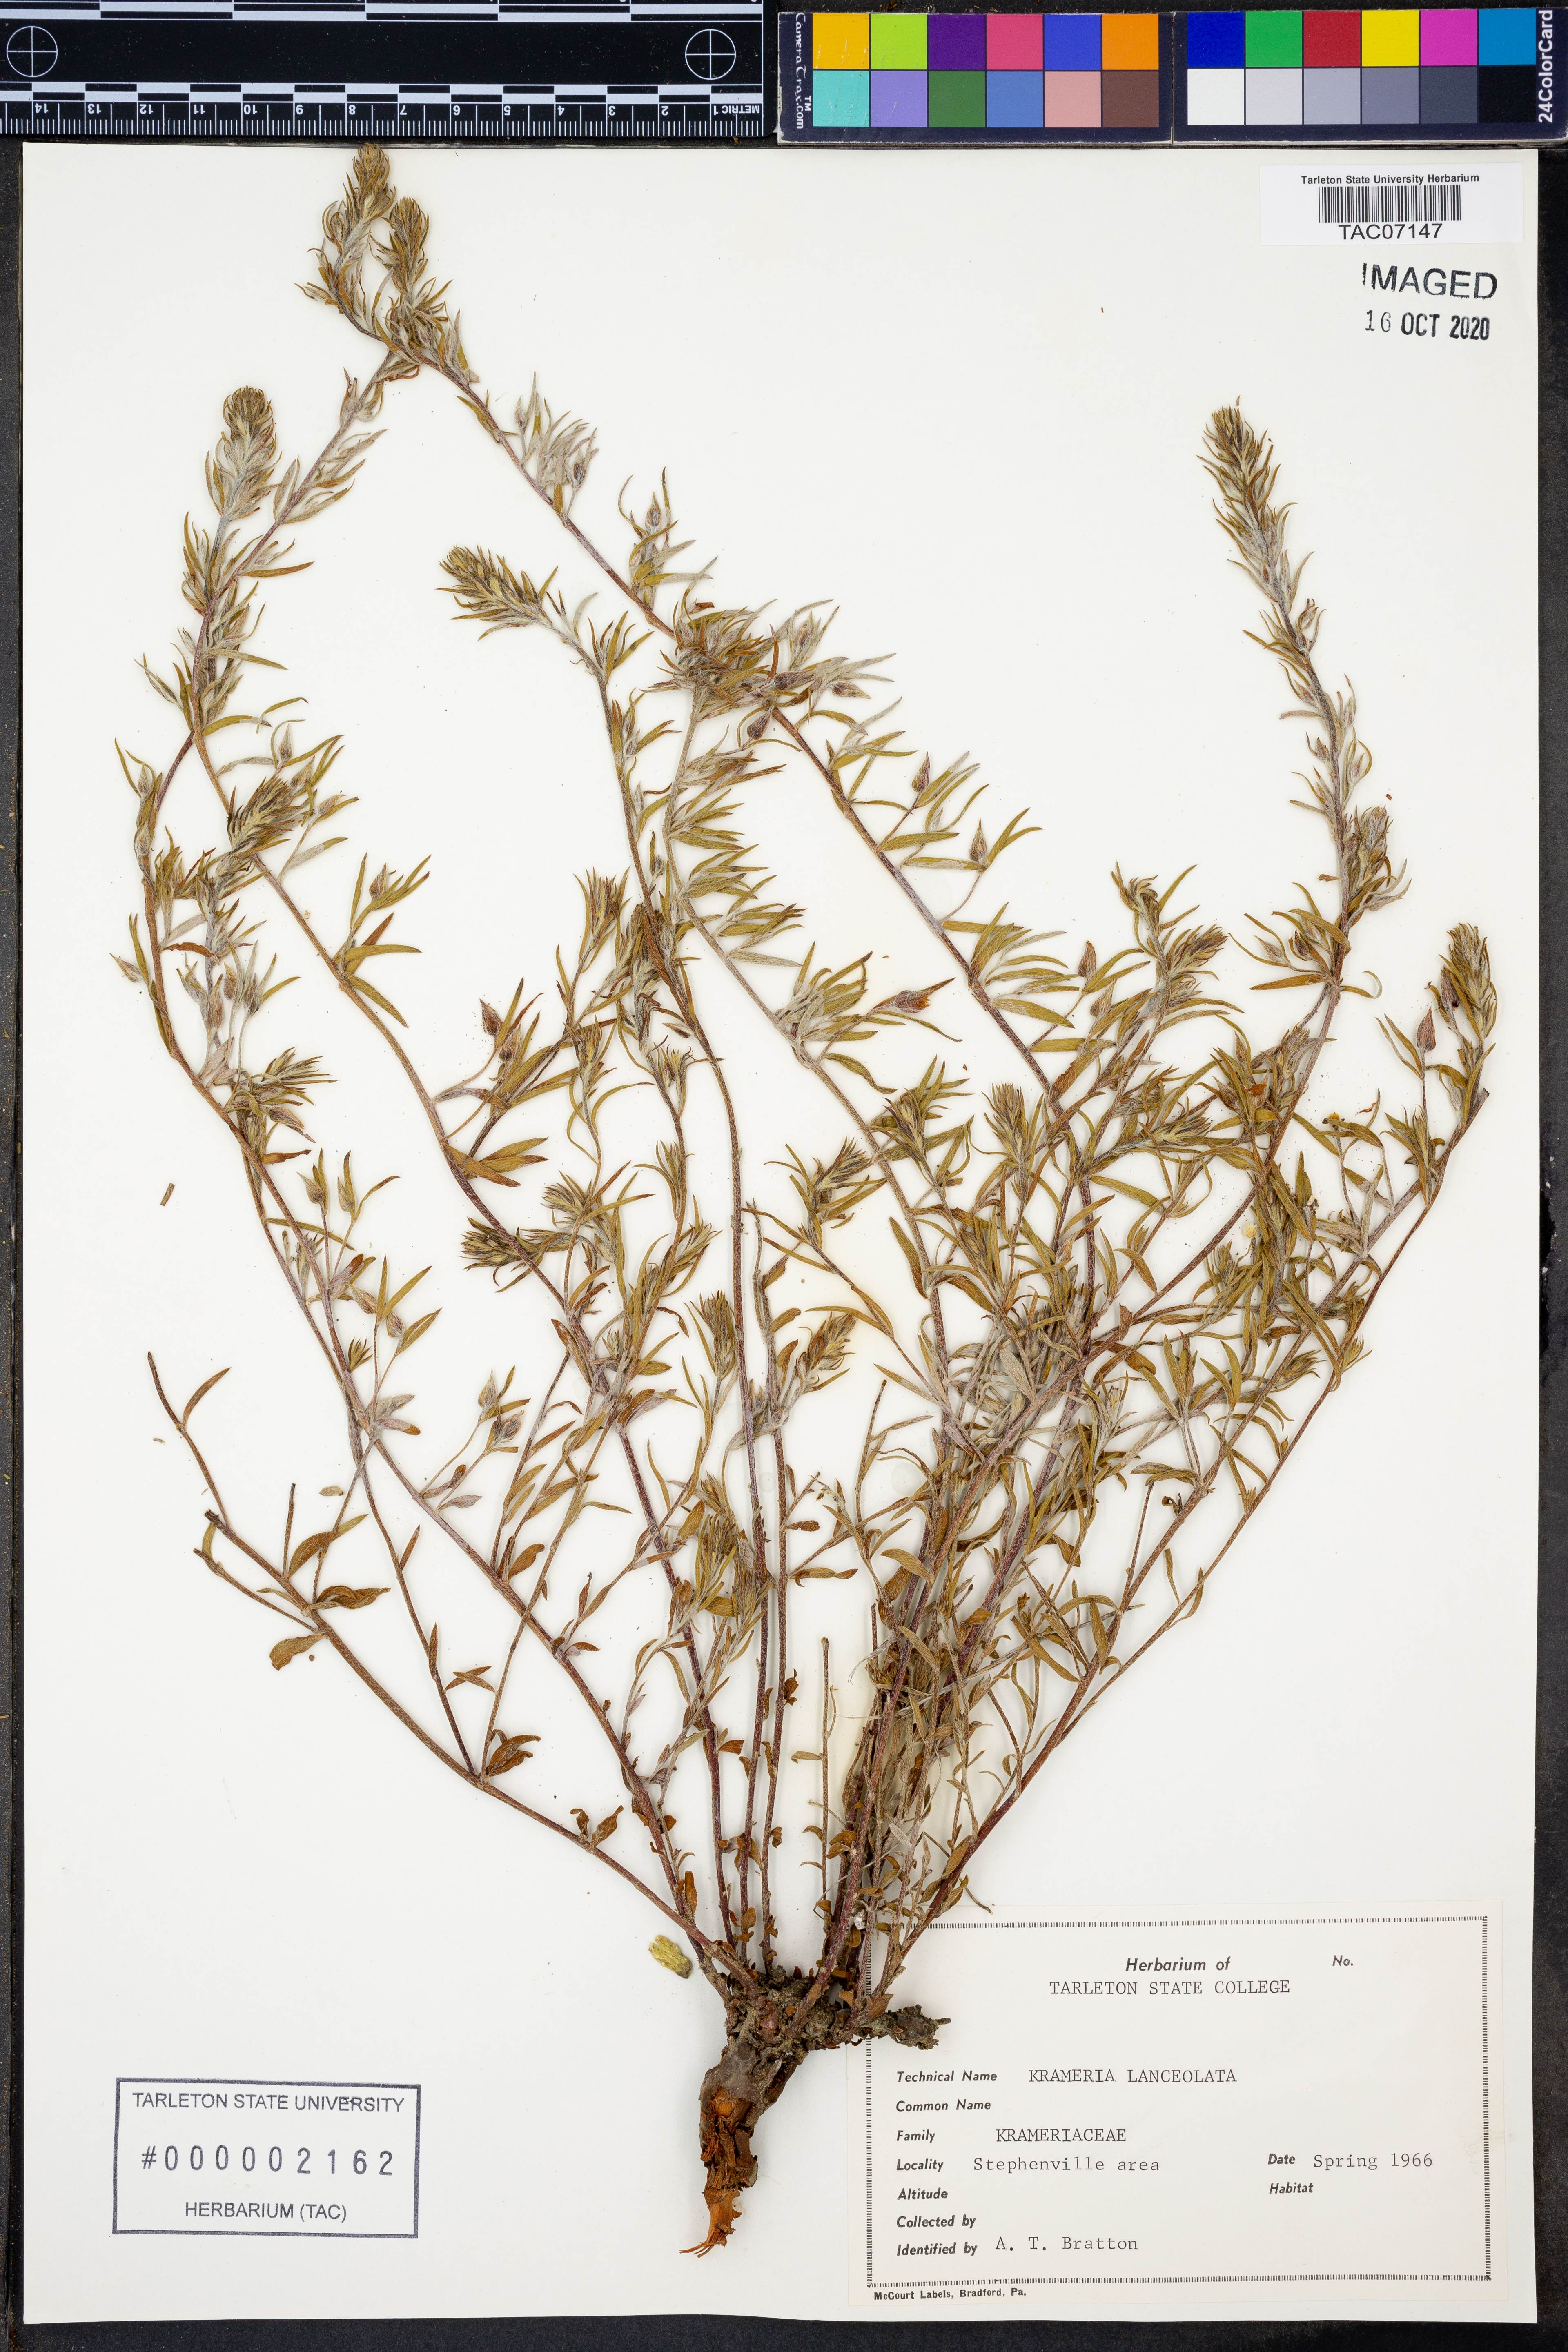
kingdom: Plantae
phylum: Tracheophyta
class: Magnoliopsida
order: Zygophyllales
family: Krameriaceae
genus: Krameria
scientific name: Krameria lanceolata
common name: Ratany
